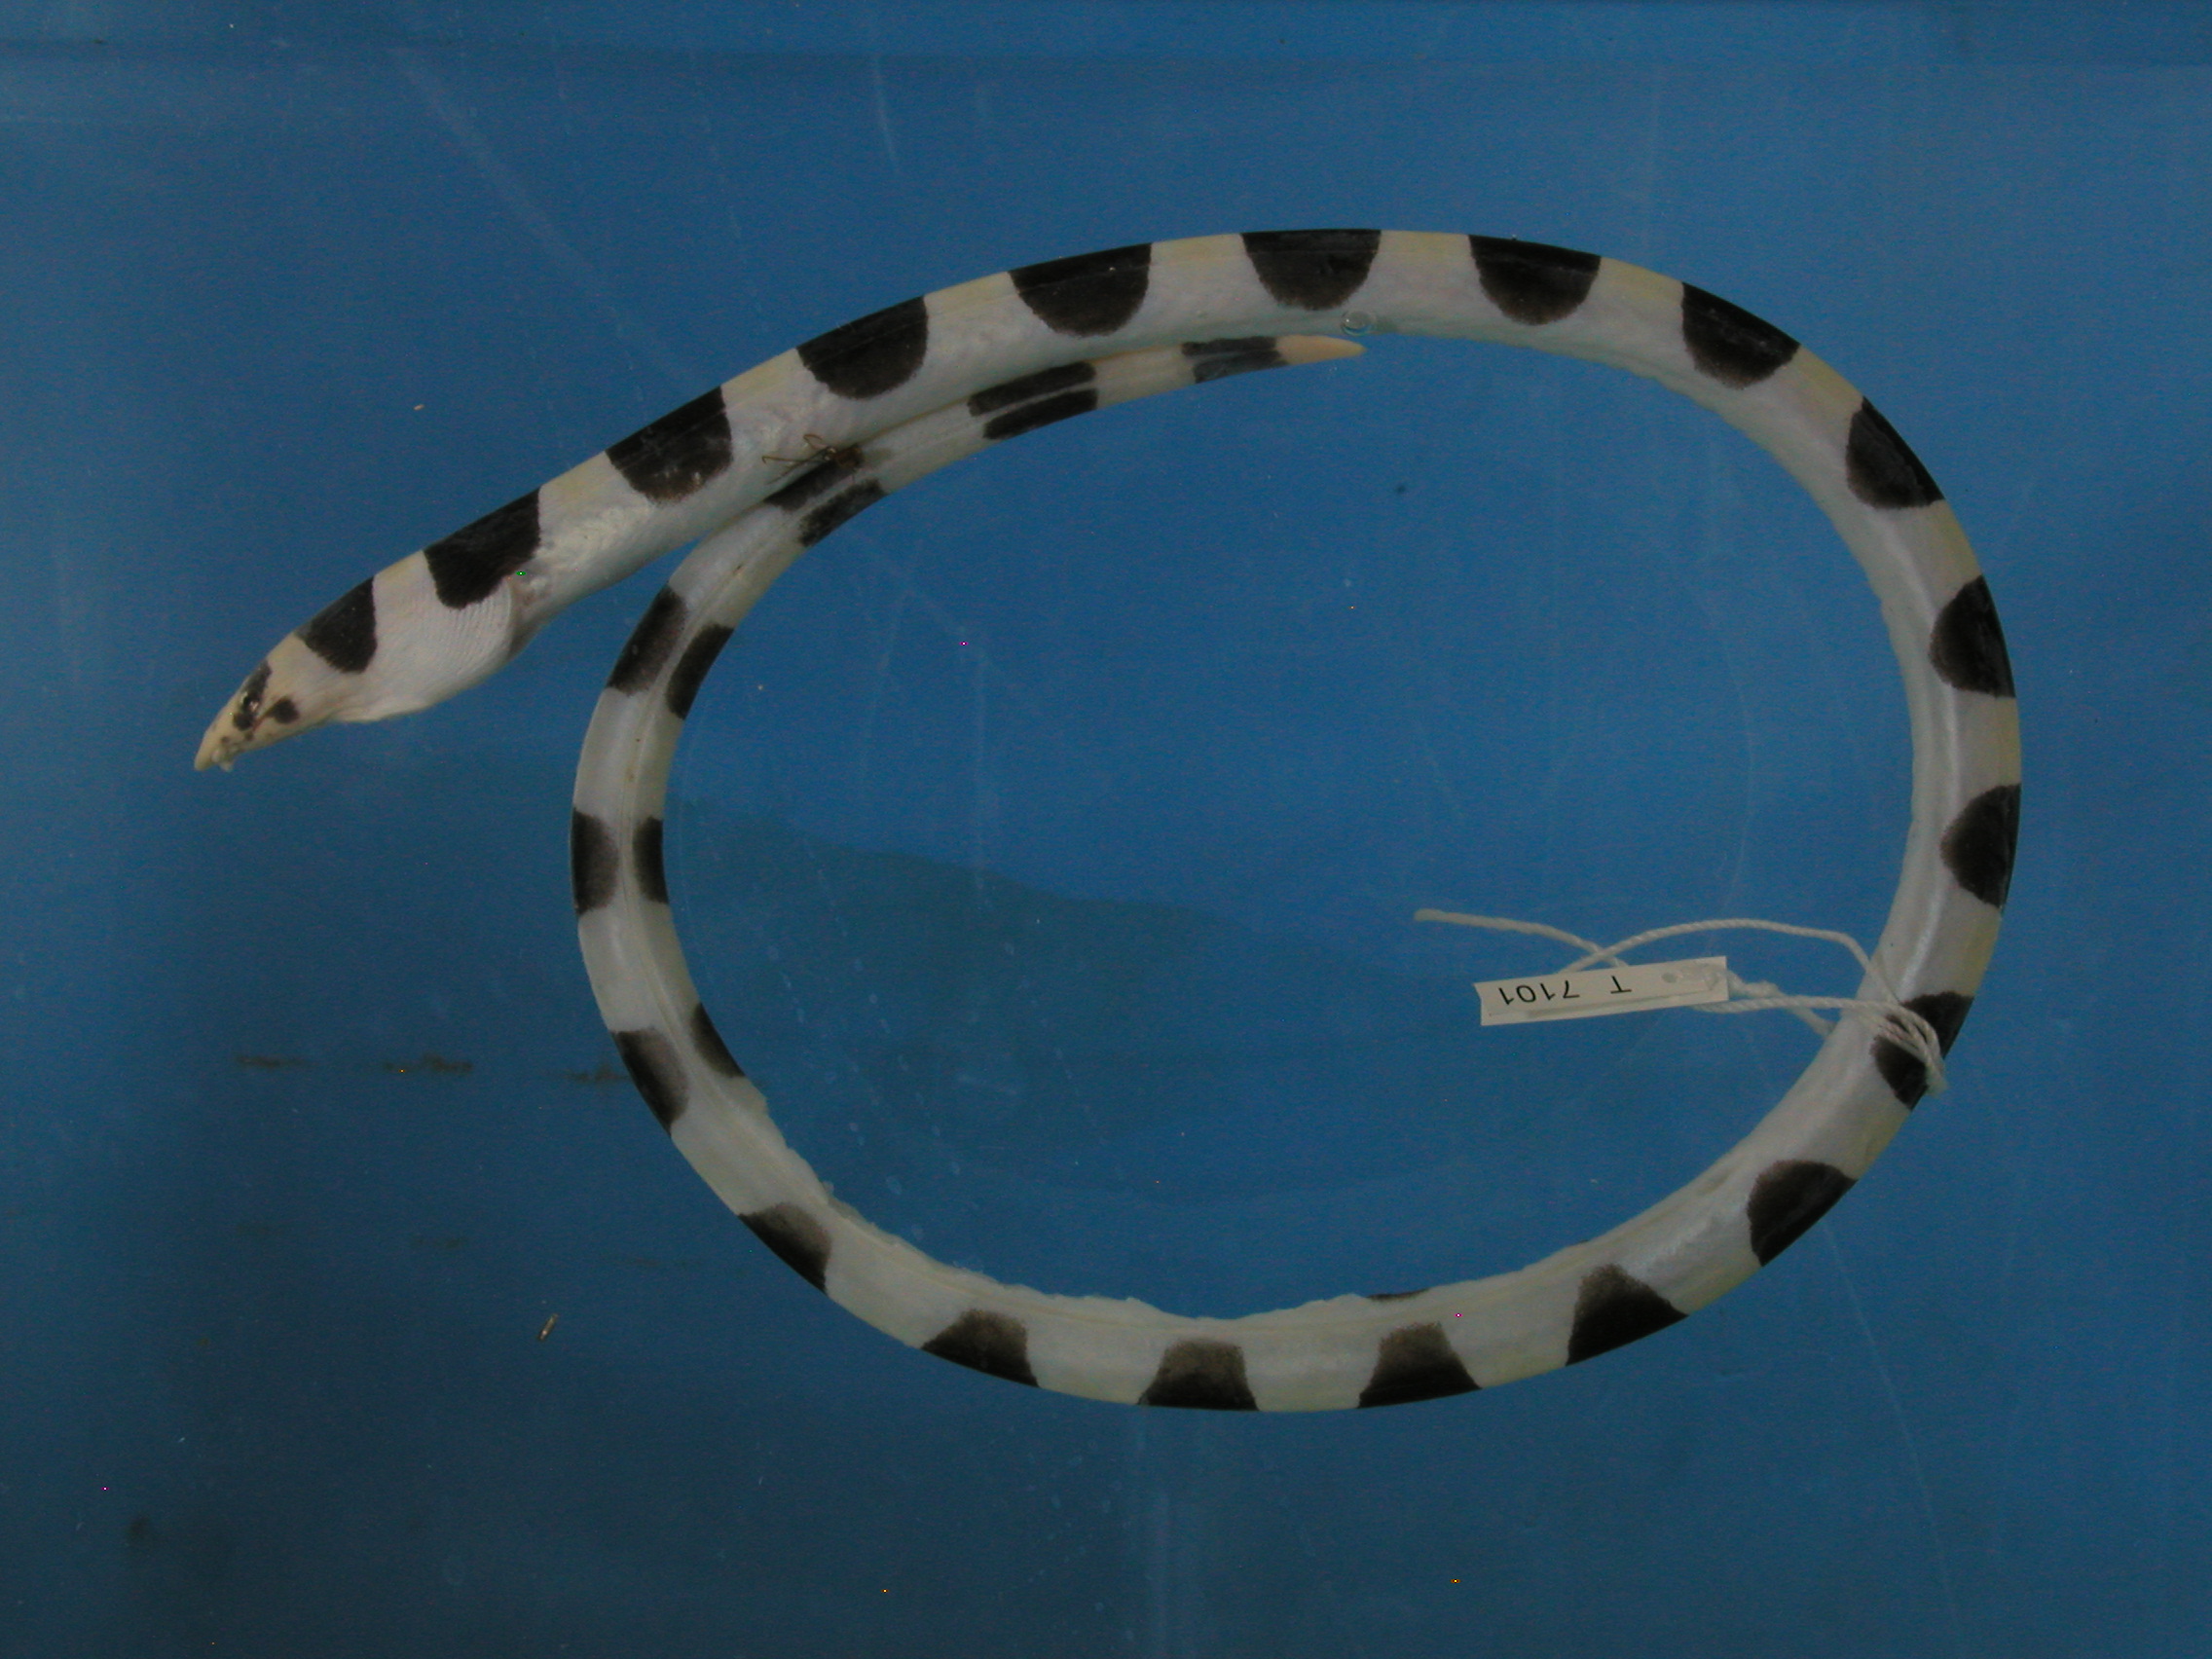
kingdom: Animalia
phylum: Chordata
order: Anguilliformes
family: Ophichthidae
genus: Leiuranus
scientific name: Leiuranus semicinctus
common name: Saddled snake eel
